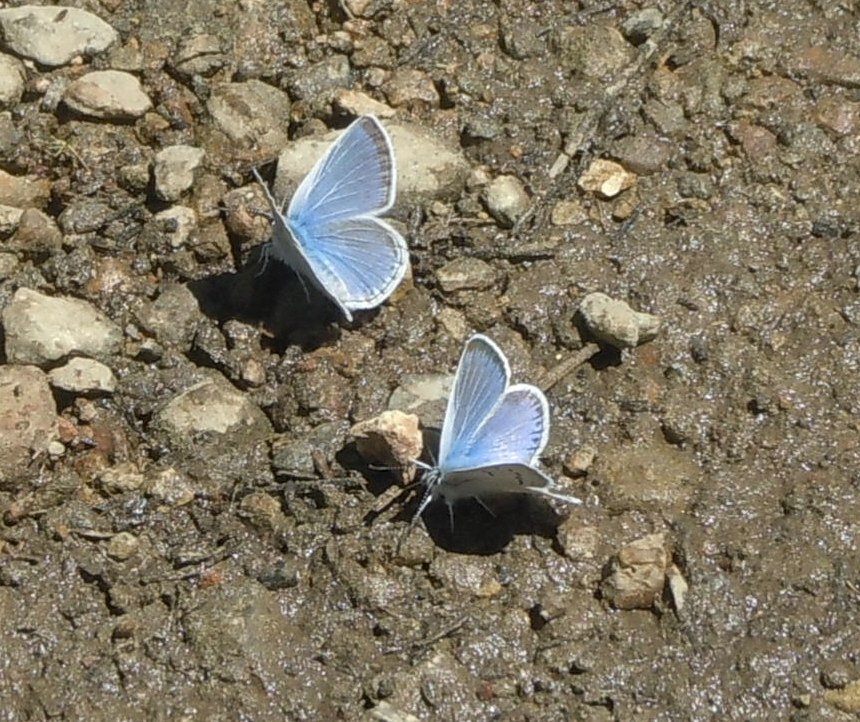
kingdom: Animalia
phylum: Arthropoda
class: Insecta
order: Lepidoptera
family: Lycaenidae
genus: Icaricia
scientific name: Icaricia icarioides
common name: Boisduval's Blue
